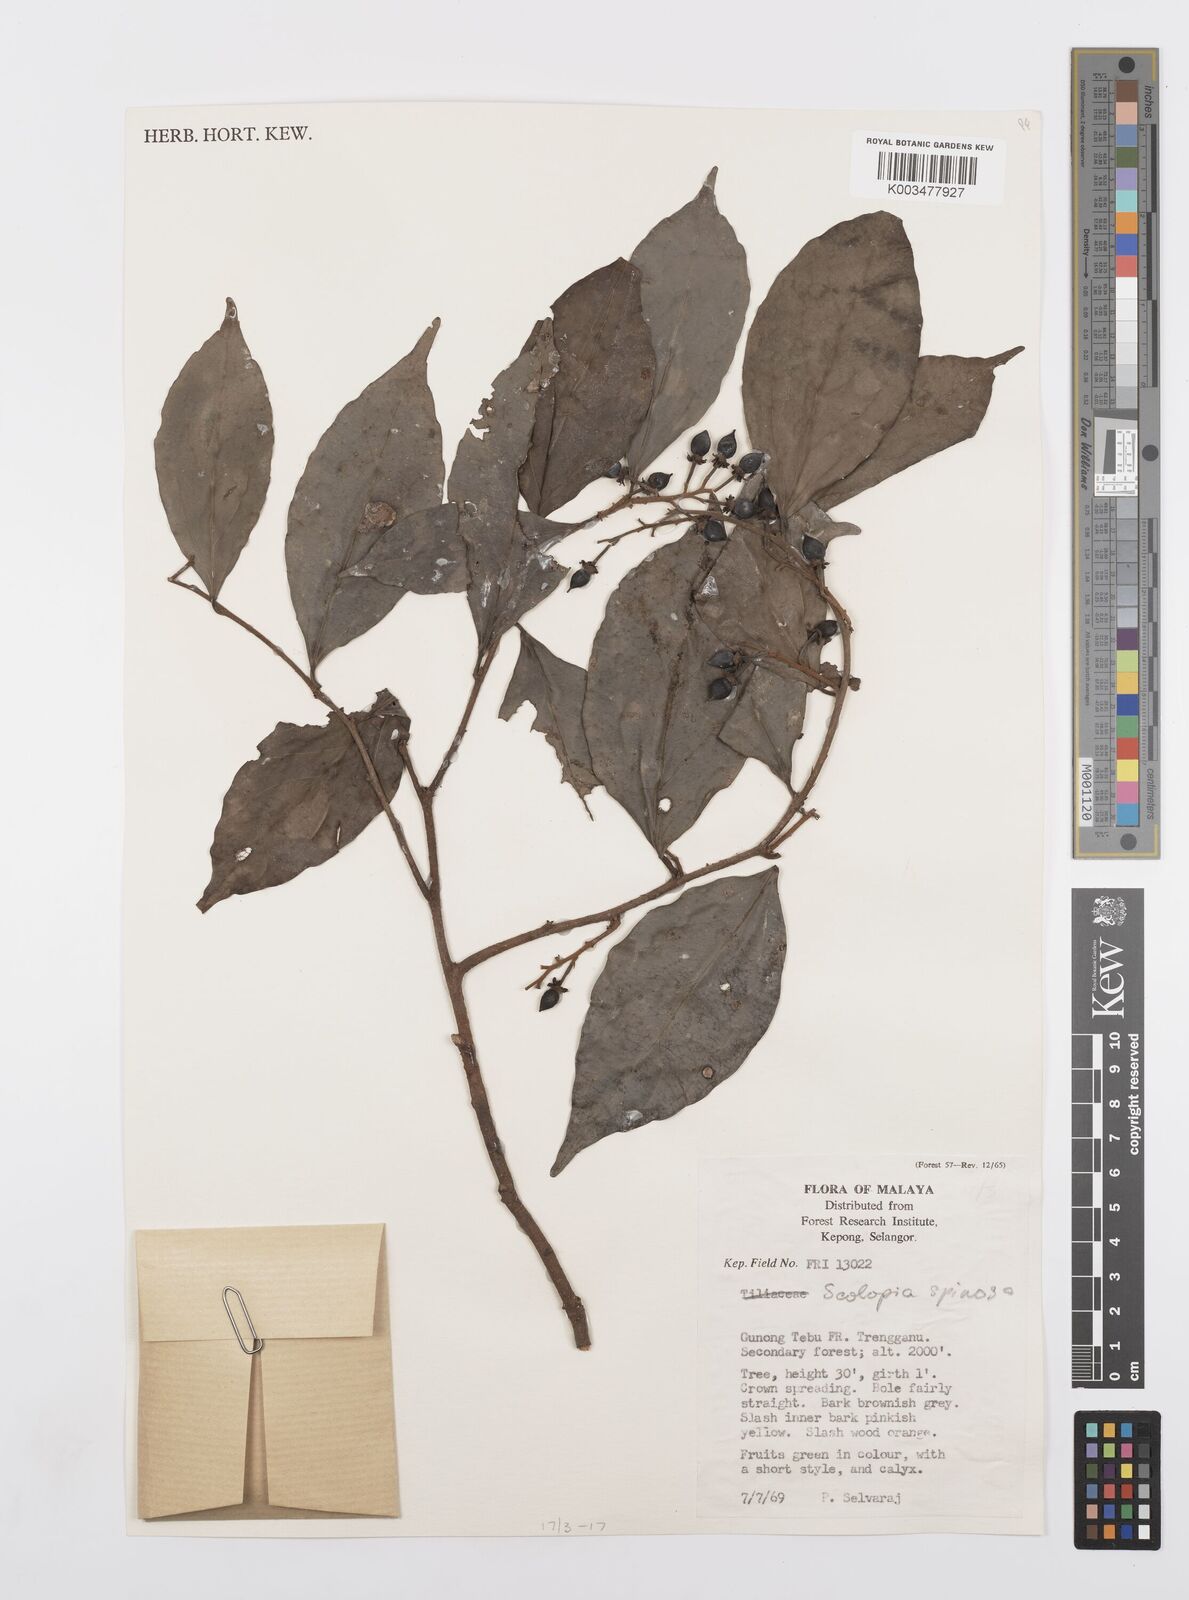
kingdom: Plantae
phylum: Tracheophyta
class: Magnoliopsida
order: Malpighiales
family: Salicaceae
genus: Scolopia
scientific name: Scolopia spinosa
